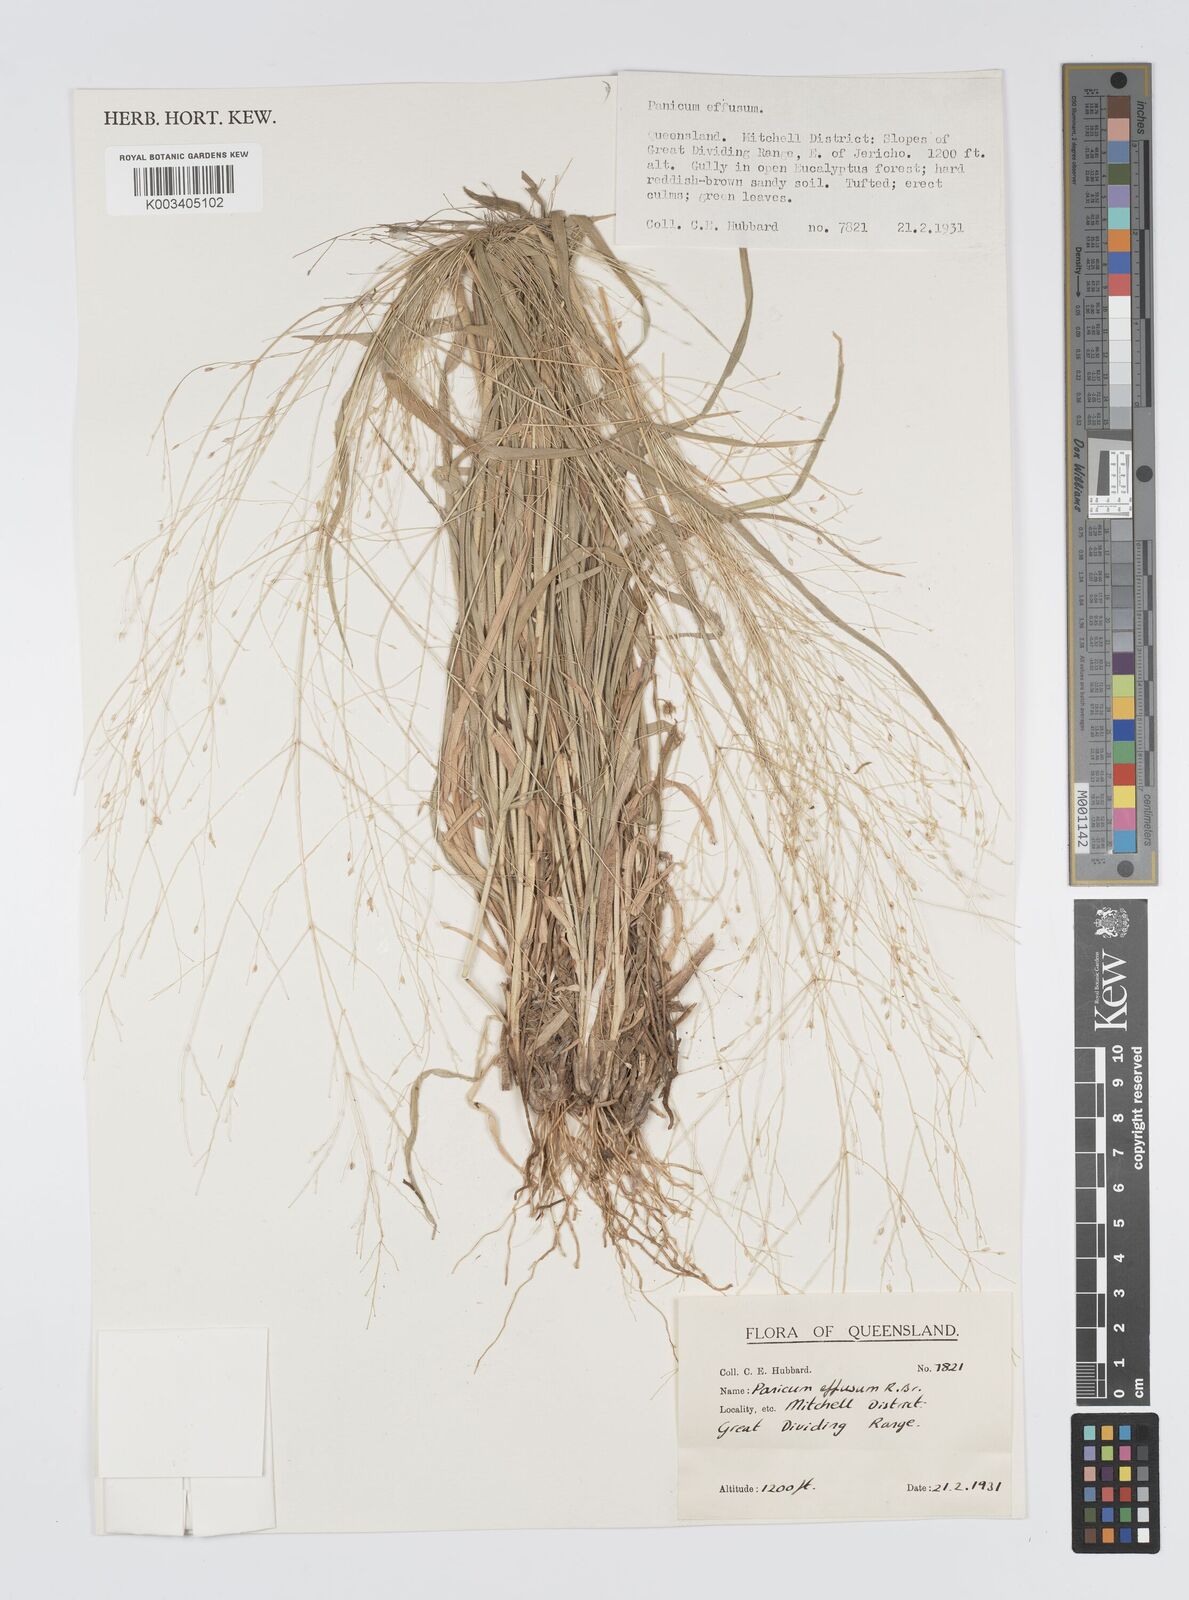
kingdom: Plantae
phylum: Tracheophyta
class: Liliopsida
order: Poales
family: Poaceae
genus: Panicum
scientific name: Panicum effusum
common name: Hairy panic grass
